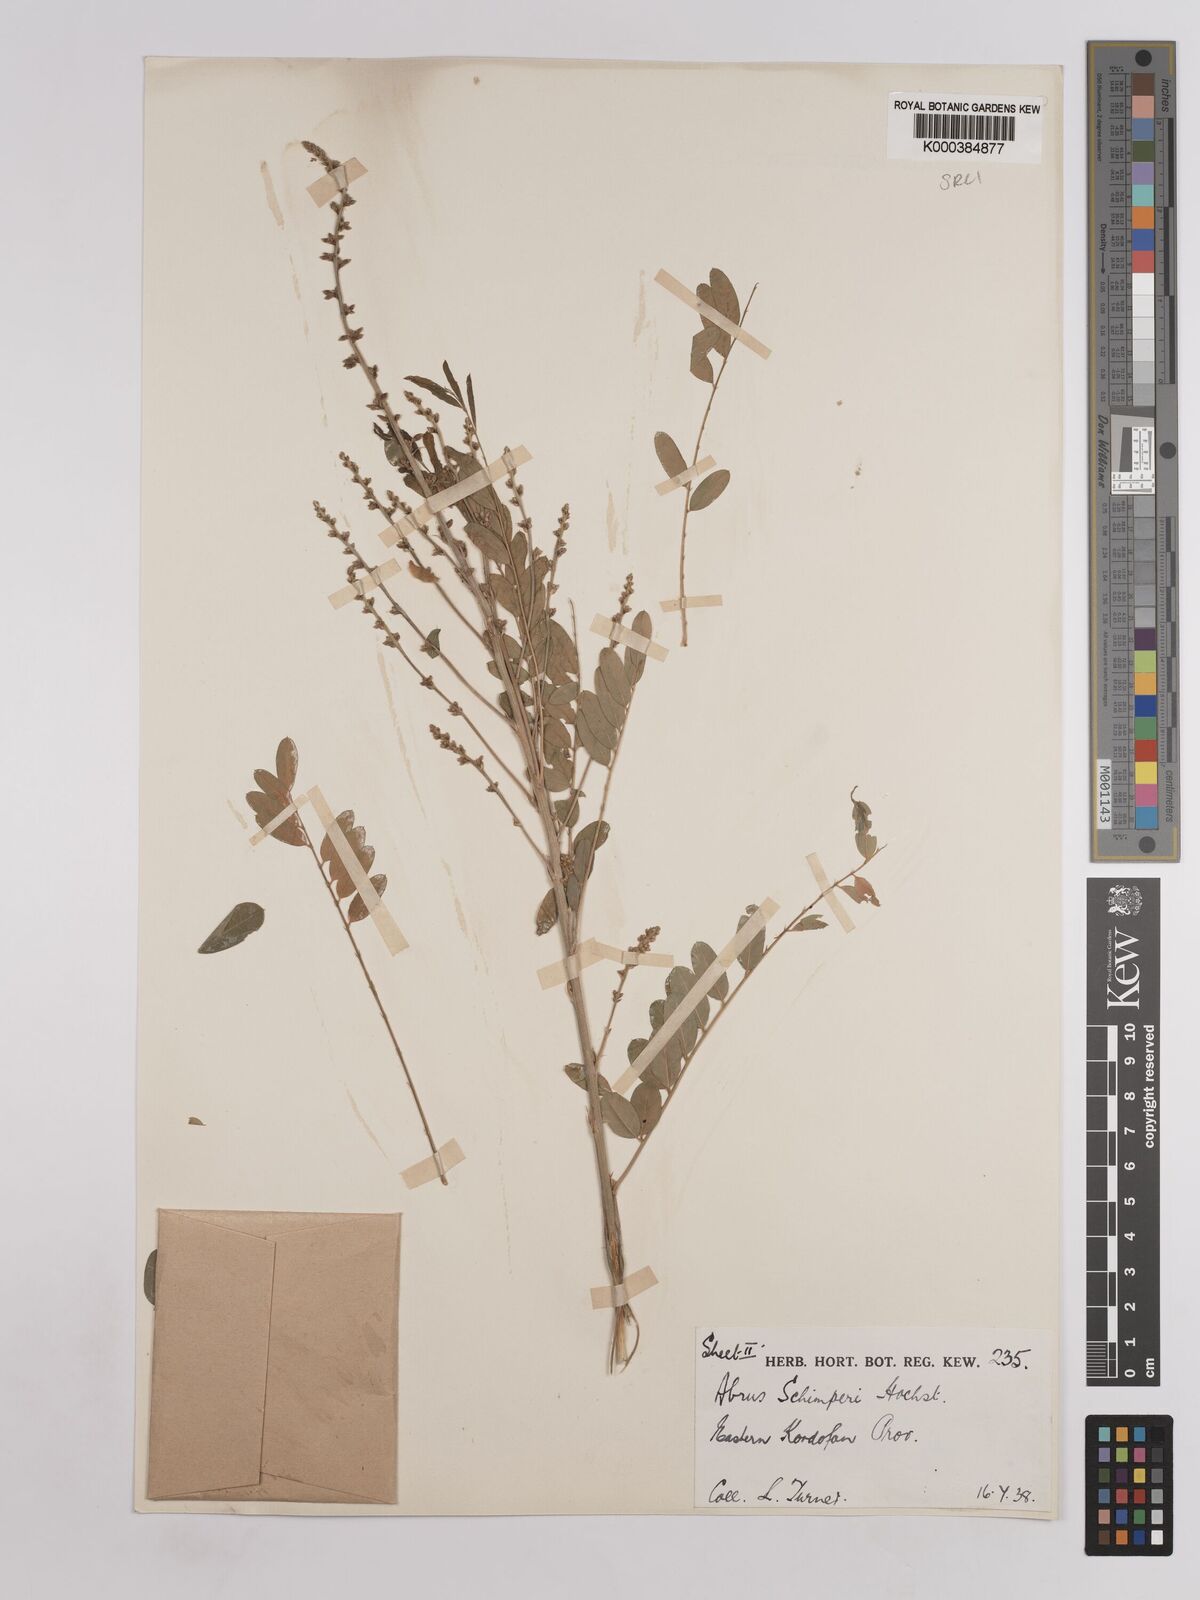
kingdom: Plantae
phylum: Tracheophyta
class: Magnoliopsida
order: Fabales
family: Fabaceae
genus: Abrus
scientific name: Abrus fruticulosus
